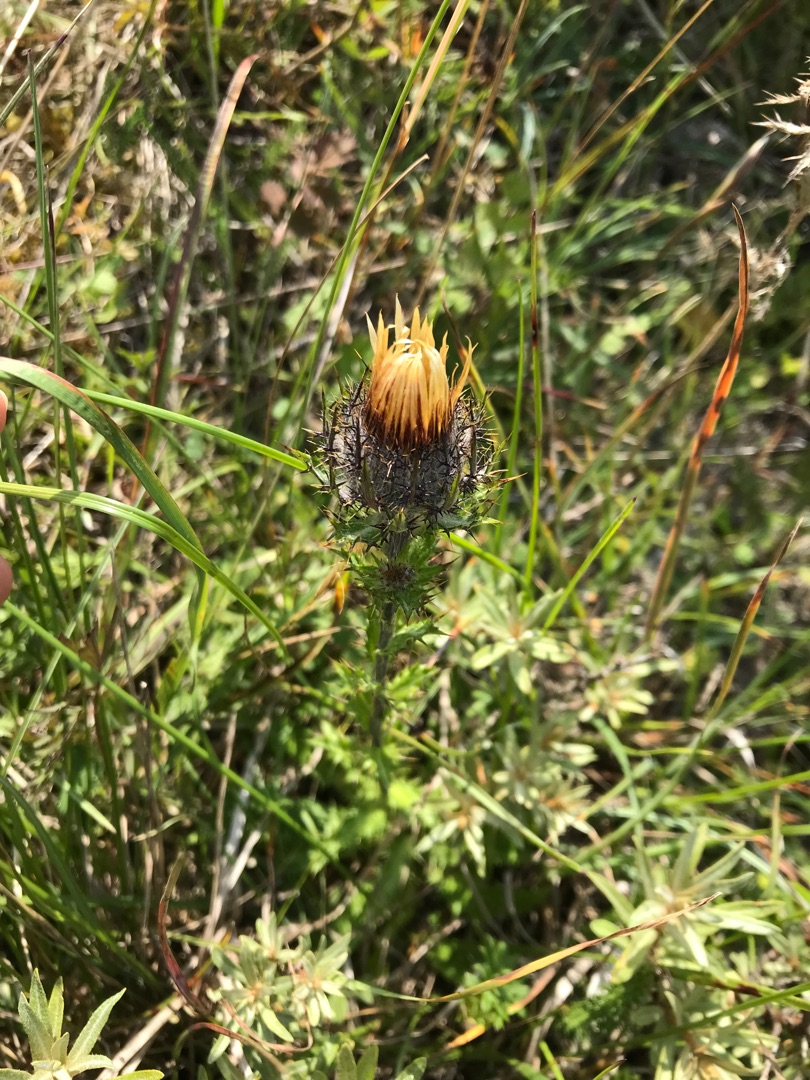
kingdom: Plantae
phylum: Tracheophyta
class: Magnoliopsida
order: Asterales
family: Asteraceae
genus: Carlina
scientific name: Carlina vulgaris
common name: Bakketidsel
